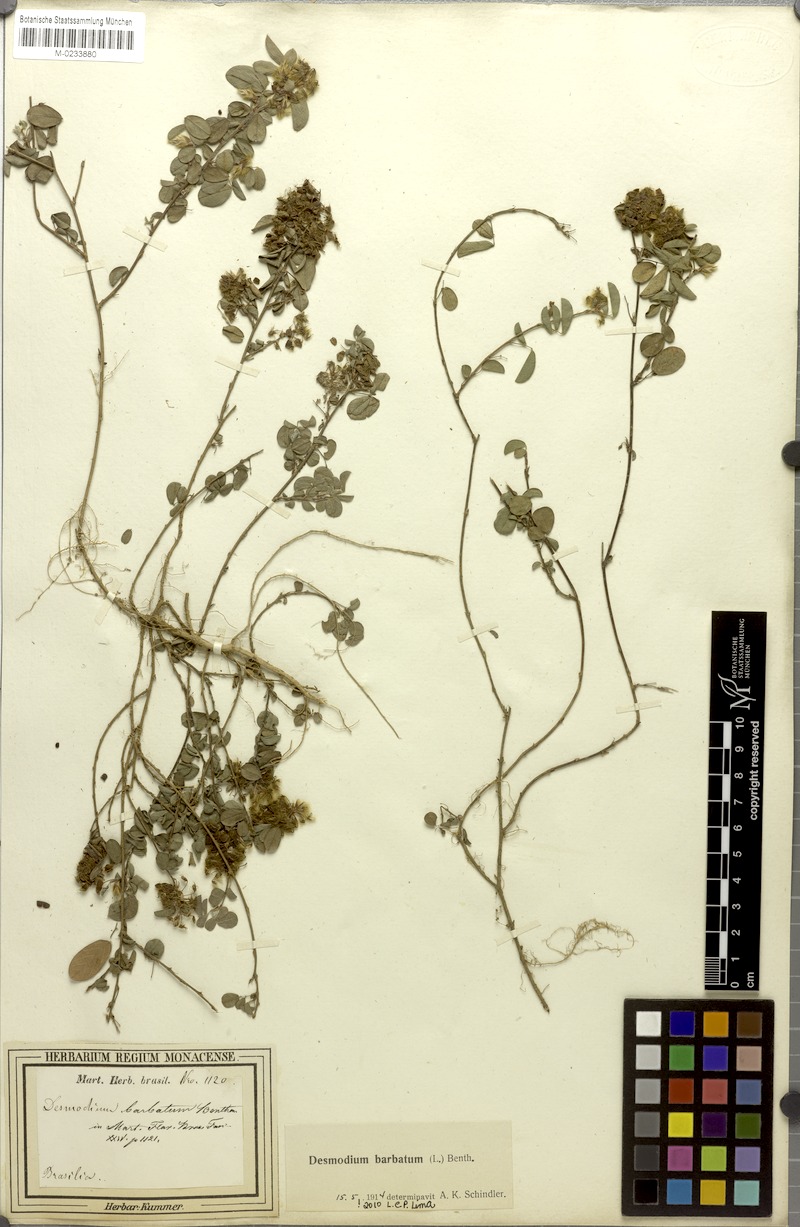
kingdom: Plantae
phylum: Tracheophyta
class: Magnoliopsida
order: Fabales
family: Fabaceae
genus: Grona
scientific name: Grona barbata
